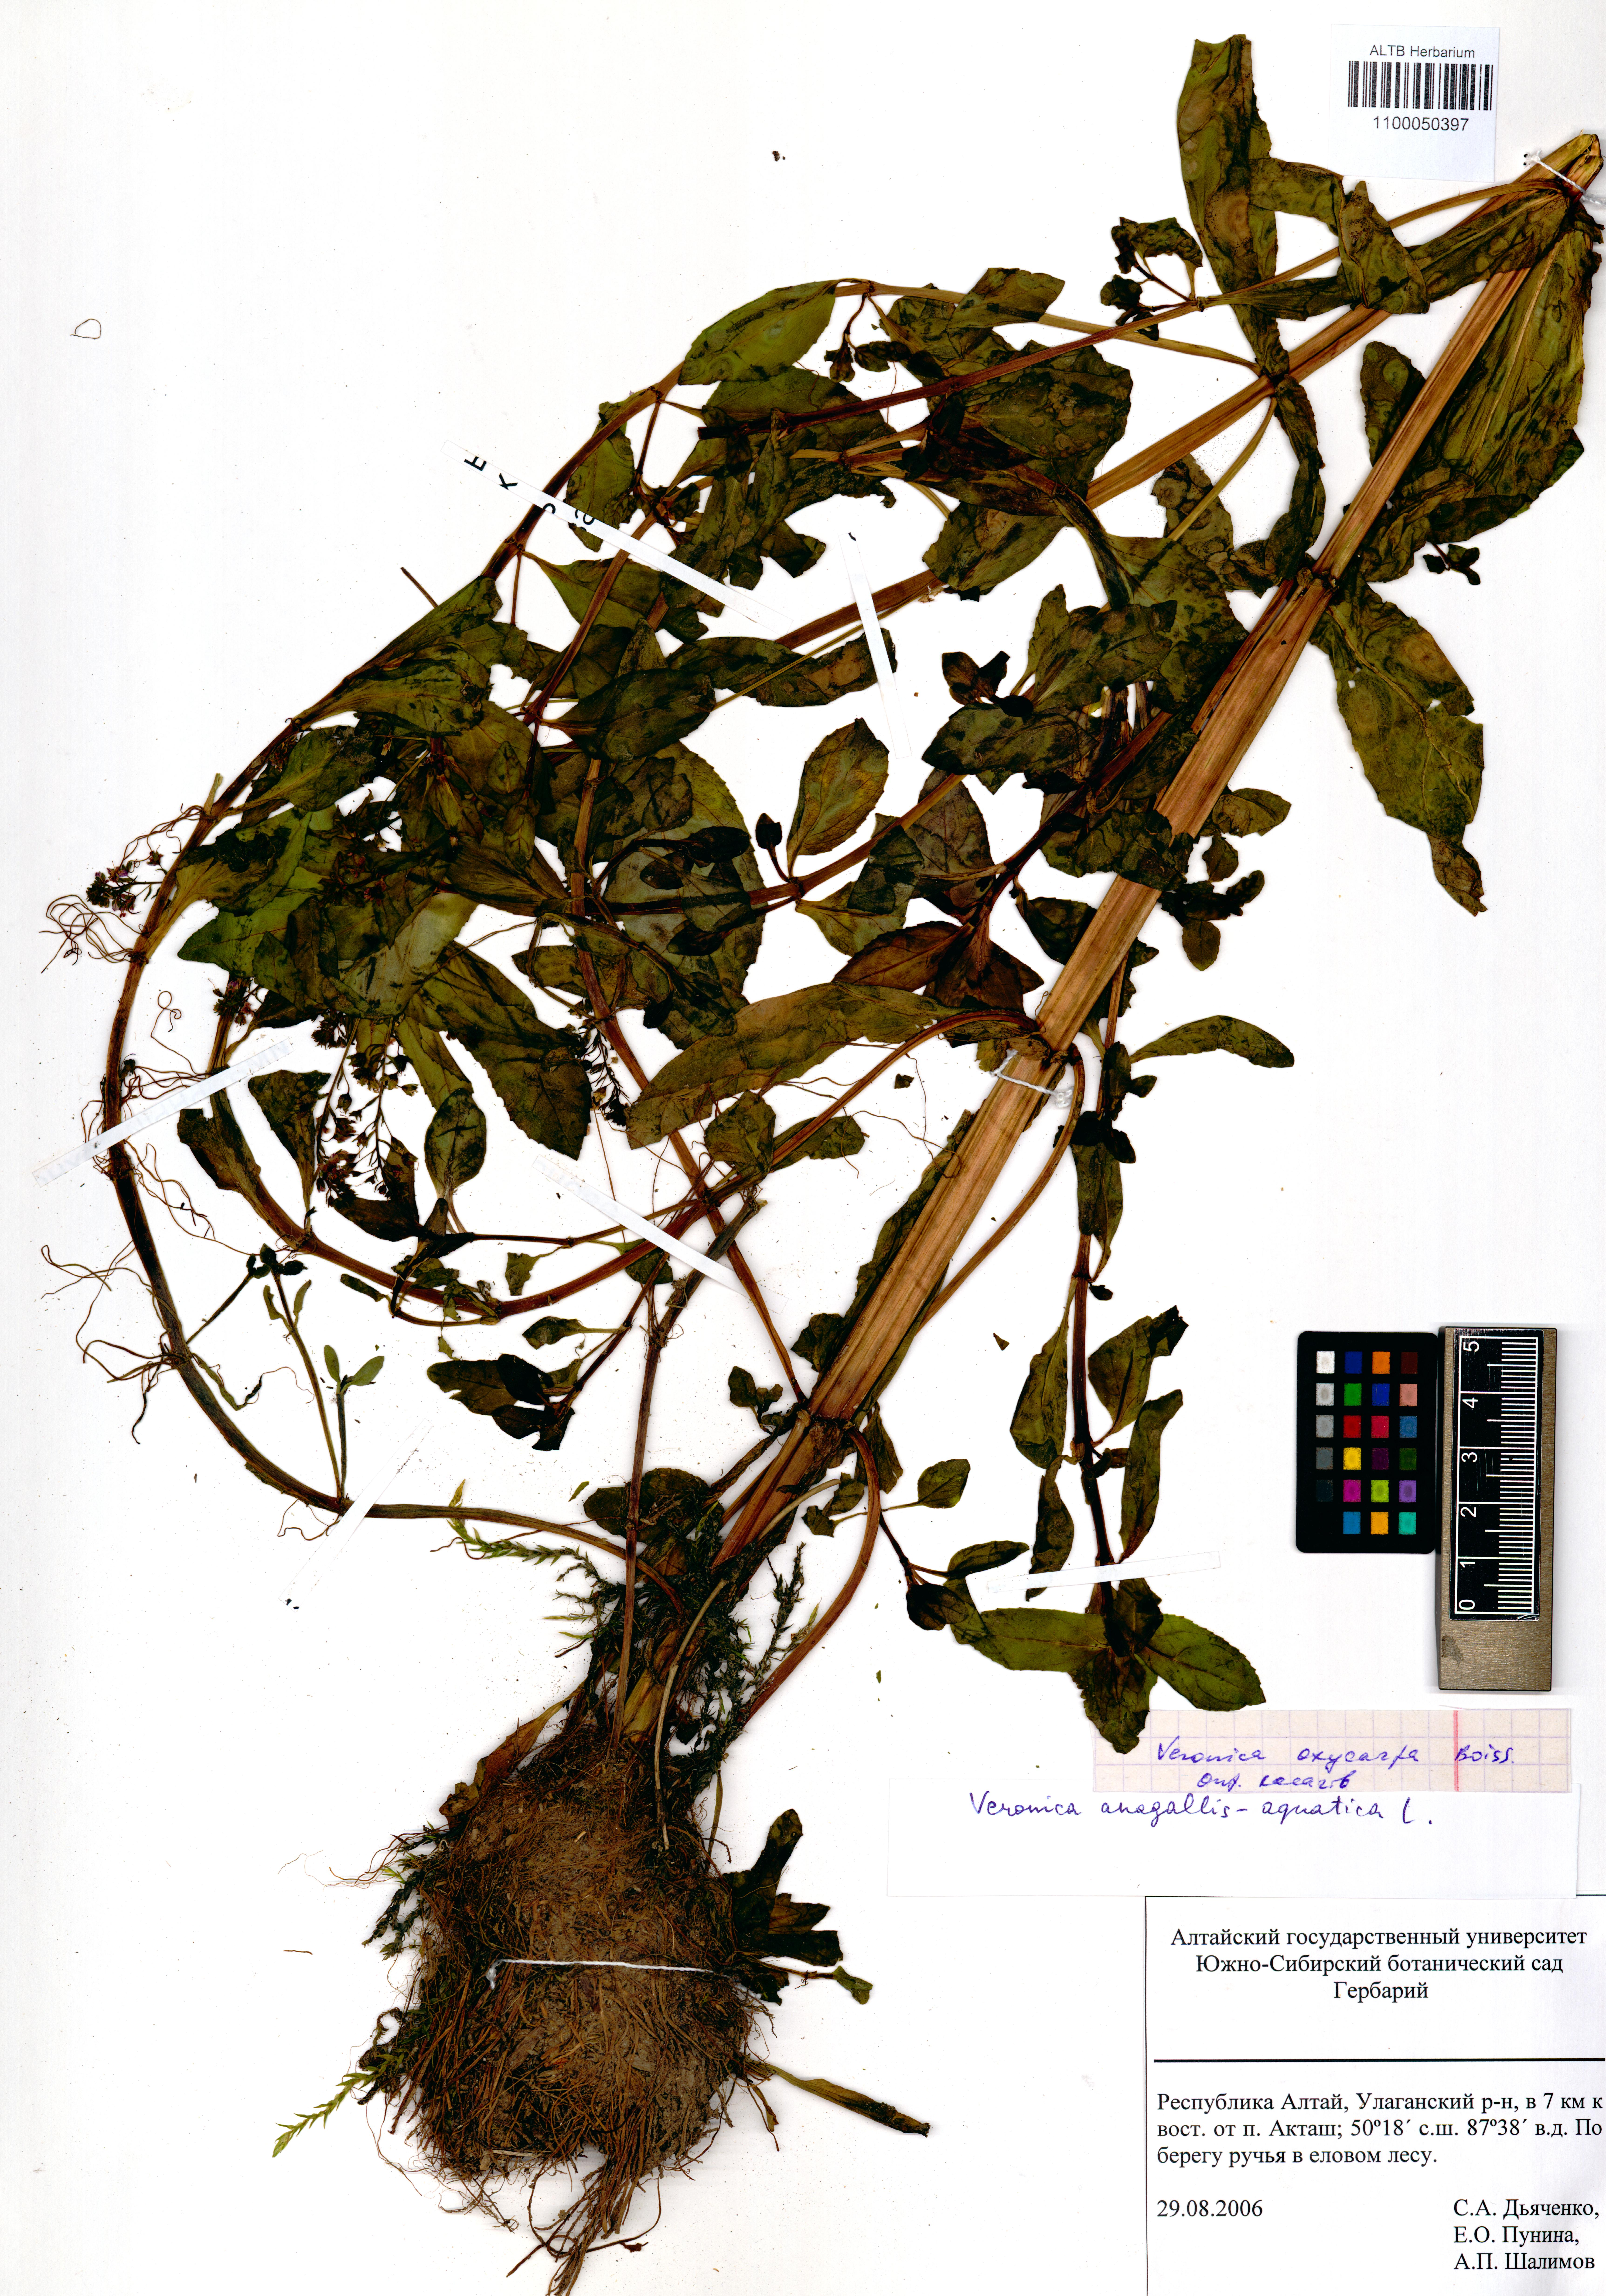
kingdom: Plantae
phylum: Tracheophyta
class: Magnoliopsida
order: Lamiales
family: Plantaginaceae
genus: Veronica
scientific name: Veronica oxycarpa
